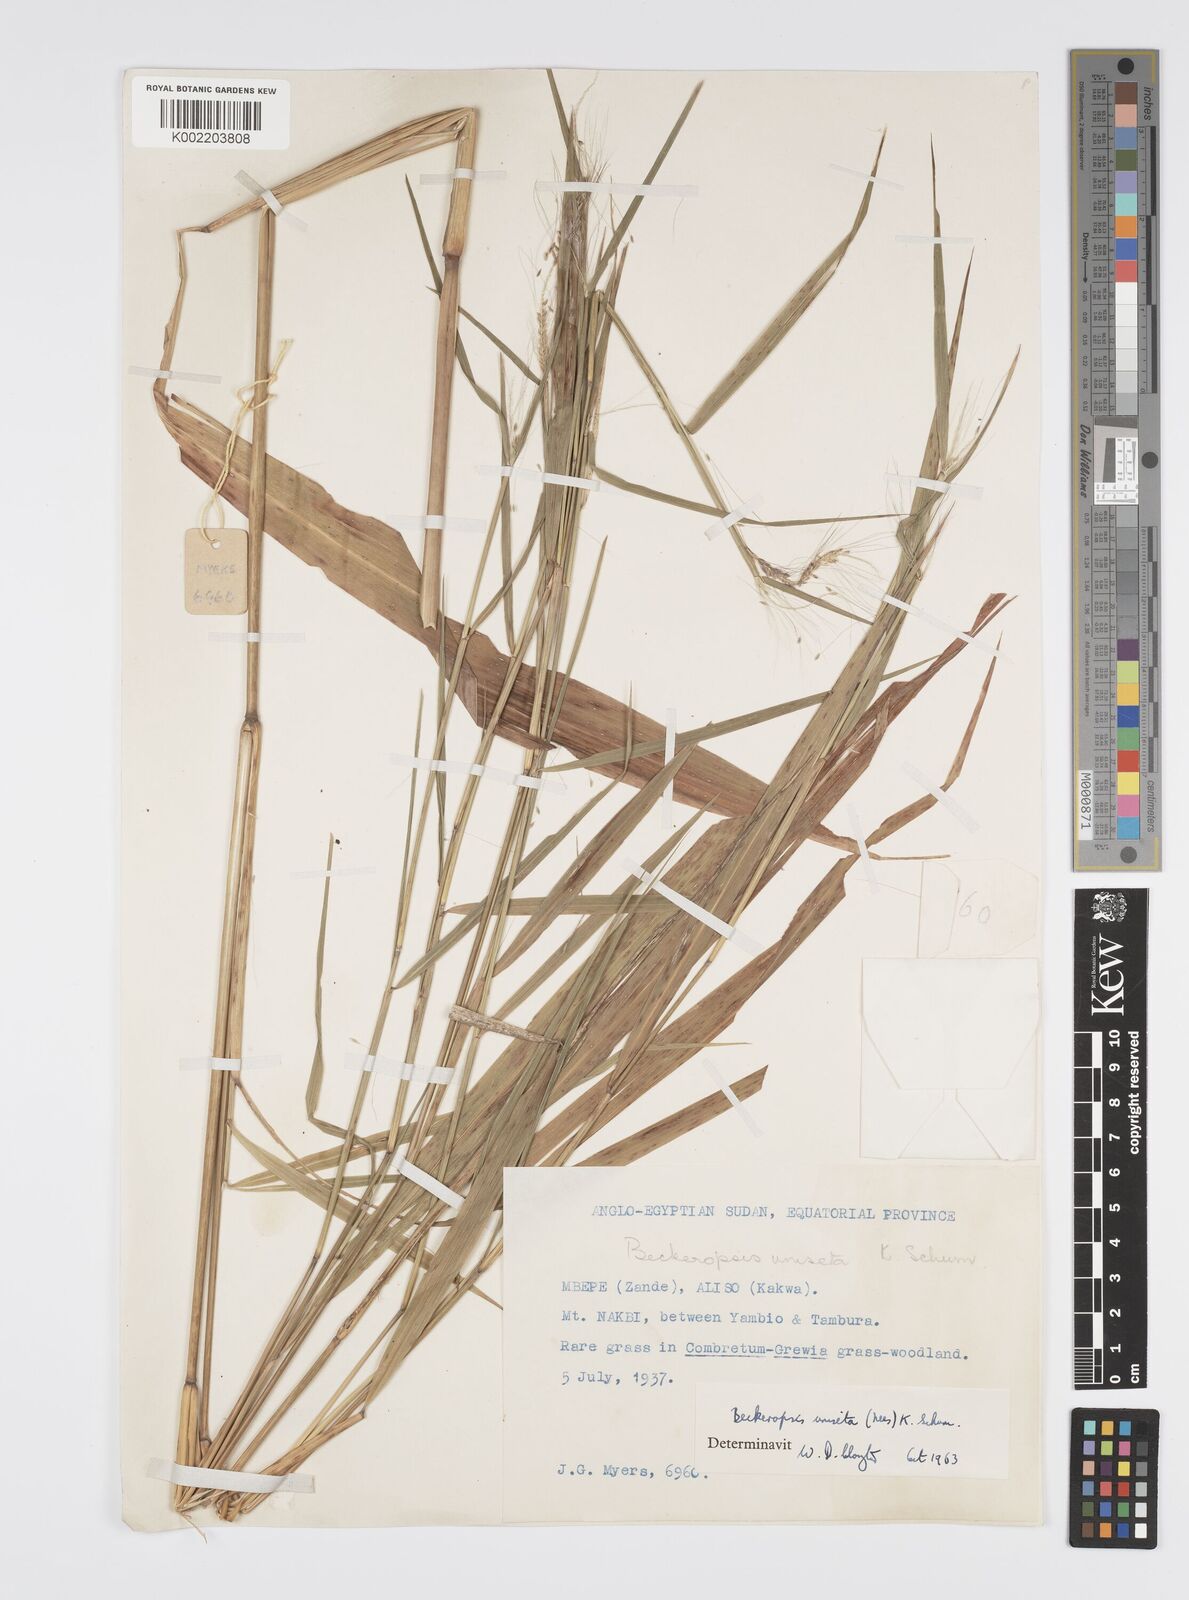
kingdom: Plantae
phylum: Tracheophyta
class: Liliopsida
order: Poales
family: Poaceae
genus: Cenchrus
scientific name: Cenchrus unisetus
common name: Natal grass
